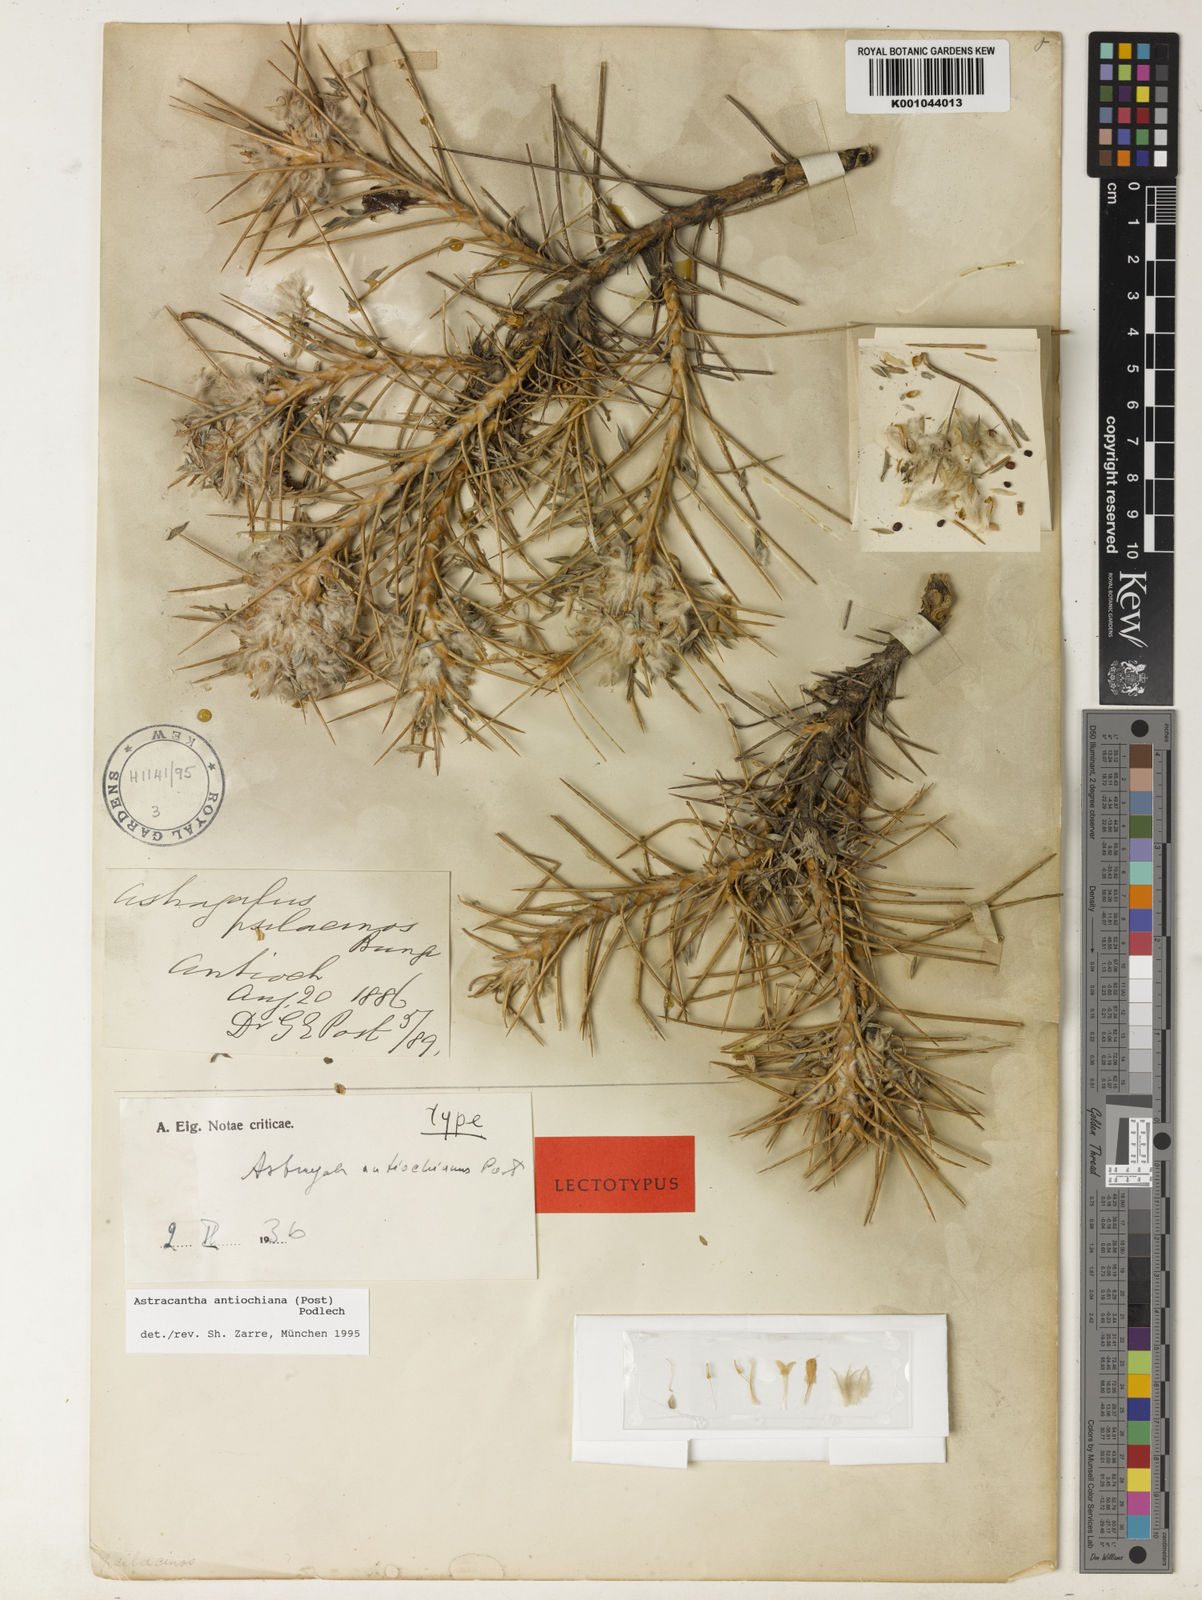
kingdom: Plantae
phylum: Tracheophyta
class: Magnoliopsida
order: Fabales
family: Fabaceae
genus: Astragalus
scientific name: Astragalus antiochianus
